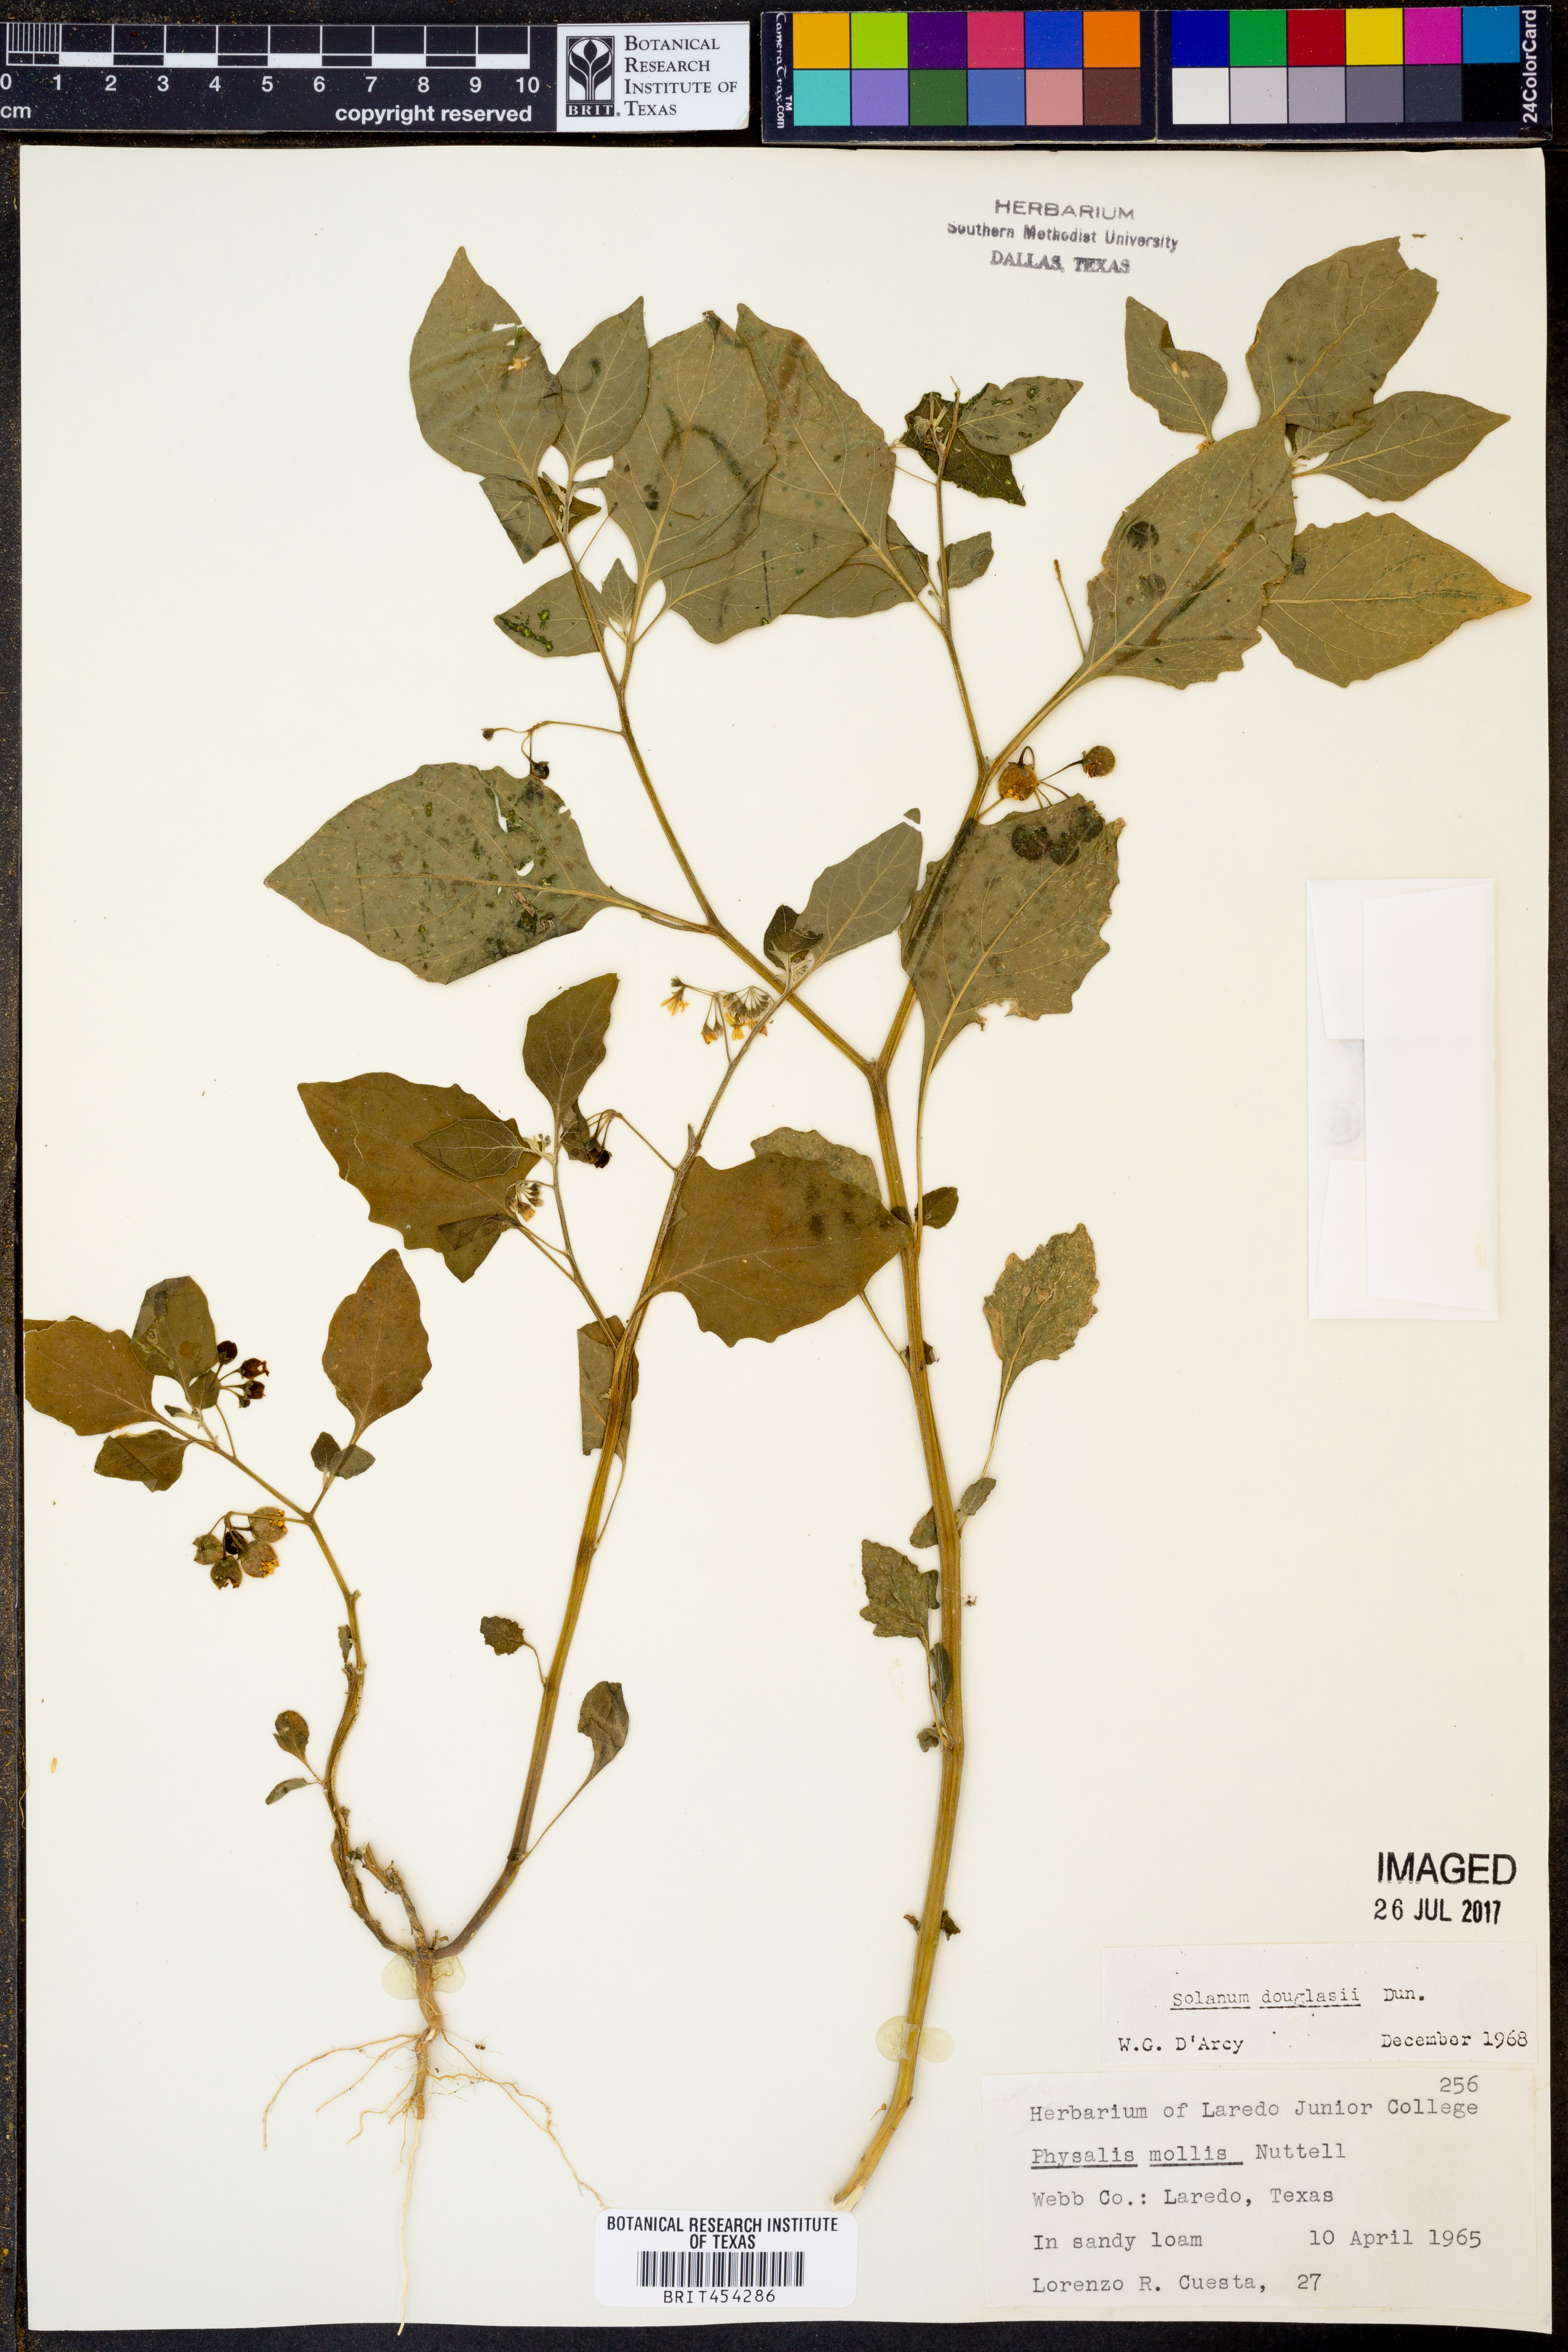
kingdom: Plantae
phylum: Tracheophyta
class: Magnoliopsida
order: Solanales
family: Solanaceae
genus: Solanum
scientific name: Solanum douglasii
